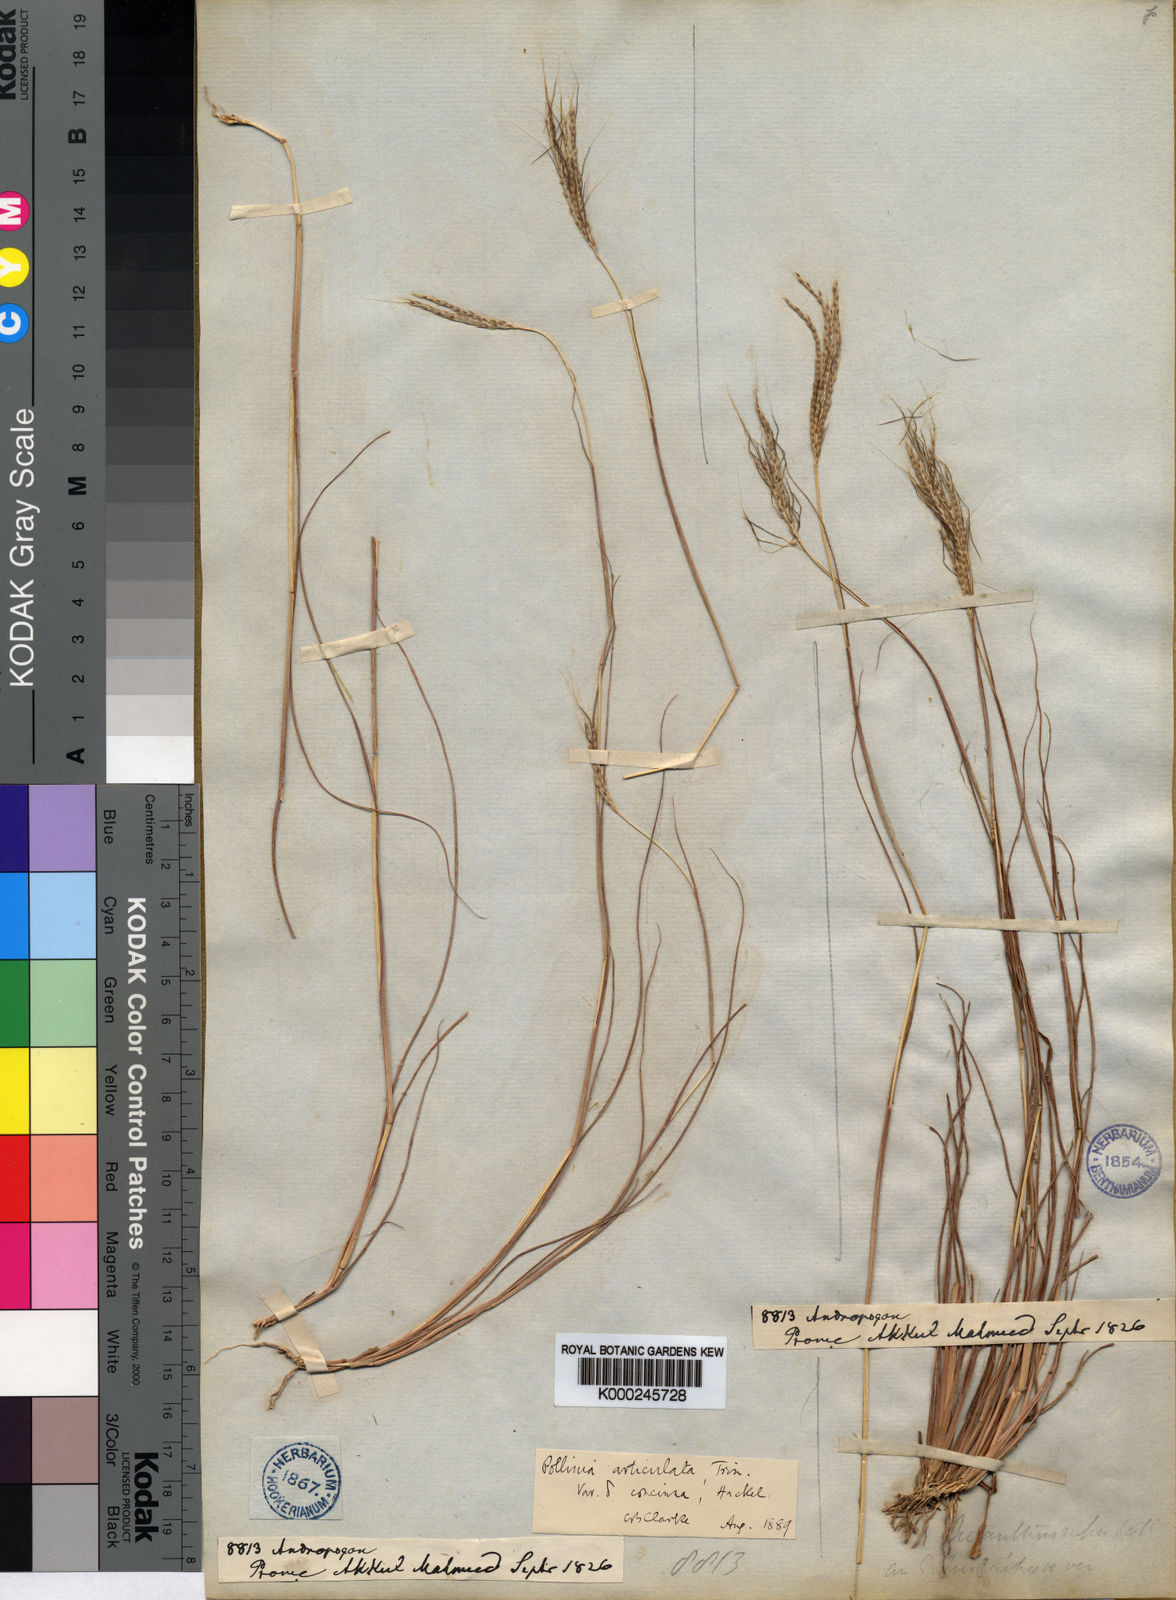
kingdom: Plantae
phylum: Tracheophyta
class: Liliopsida
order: Poales
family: Poaceae
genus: Pseudopogonatherum
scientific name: Pseudopogonatherum contortum
